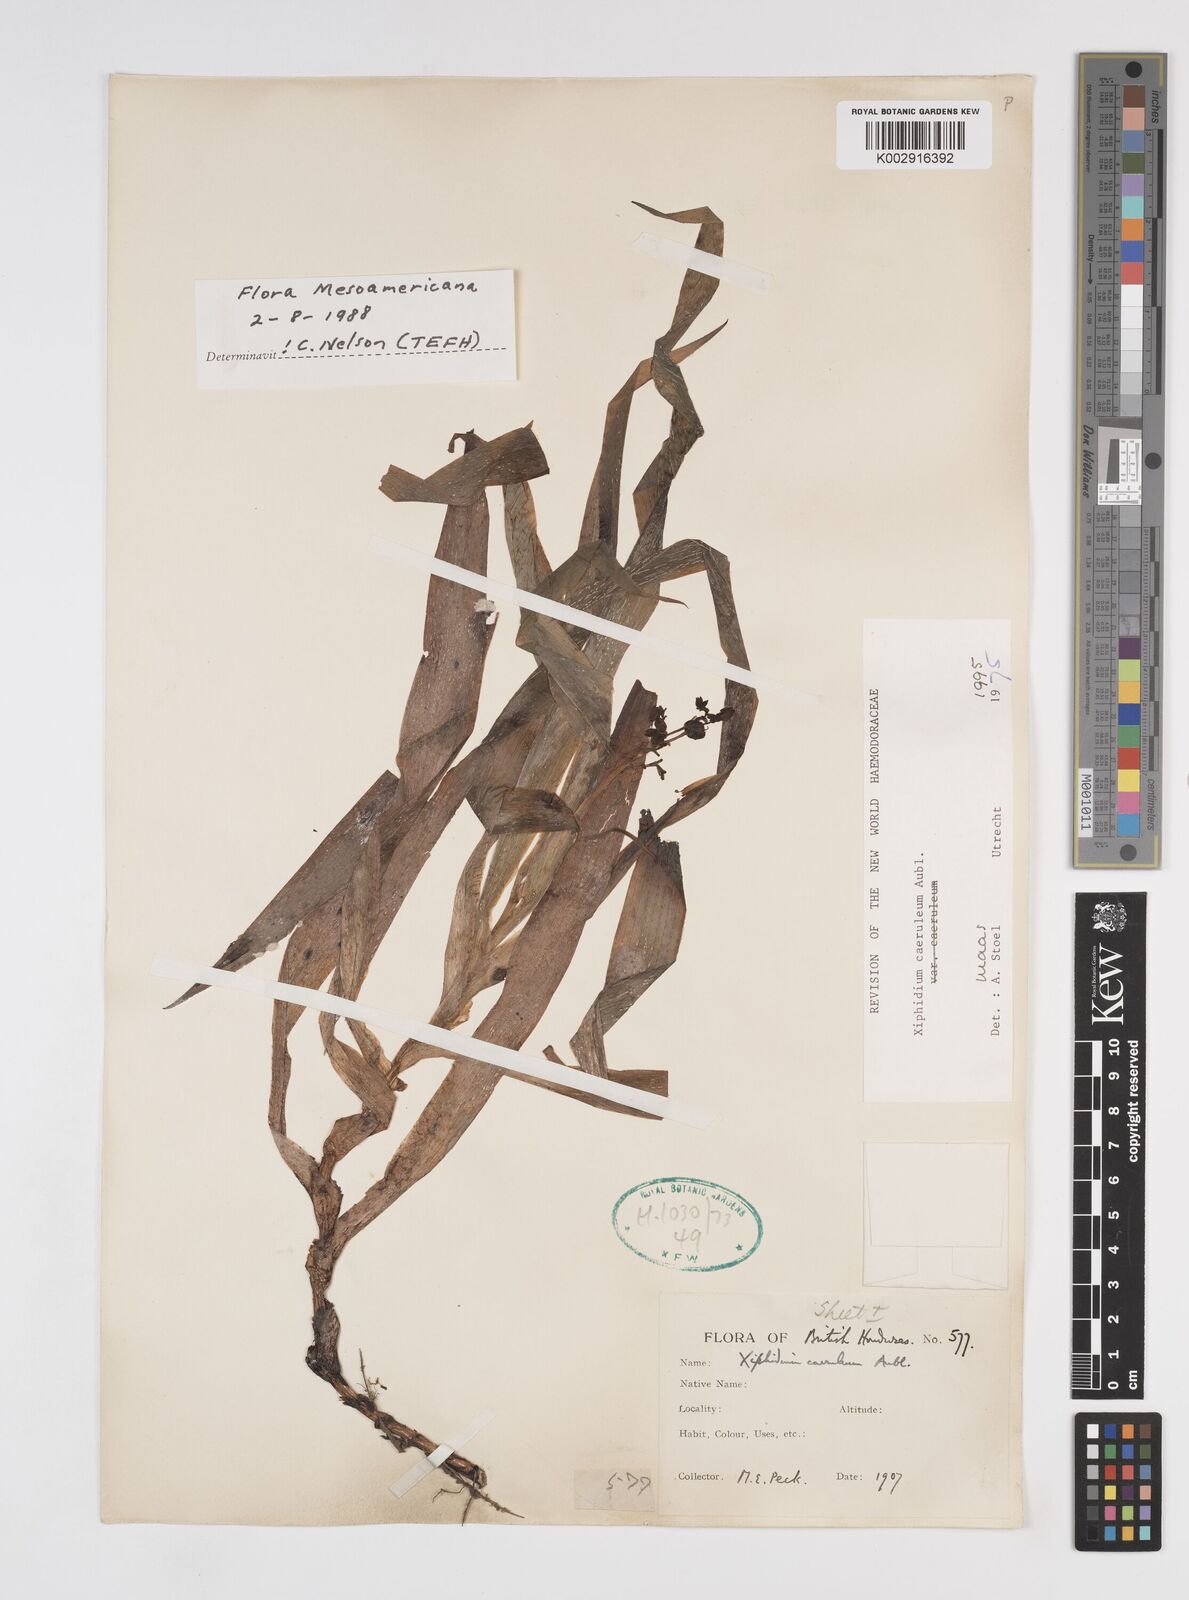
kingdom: Plantae
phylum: Tracheophyta
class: Liliopsida
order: Commelinales
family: Haemodoraceae
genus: Xiphidium
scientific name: Xiphidium caeruleum
